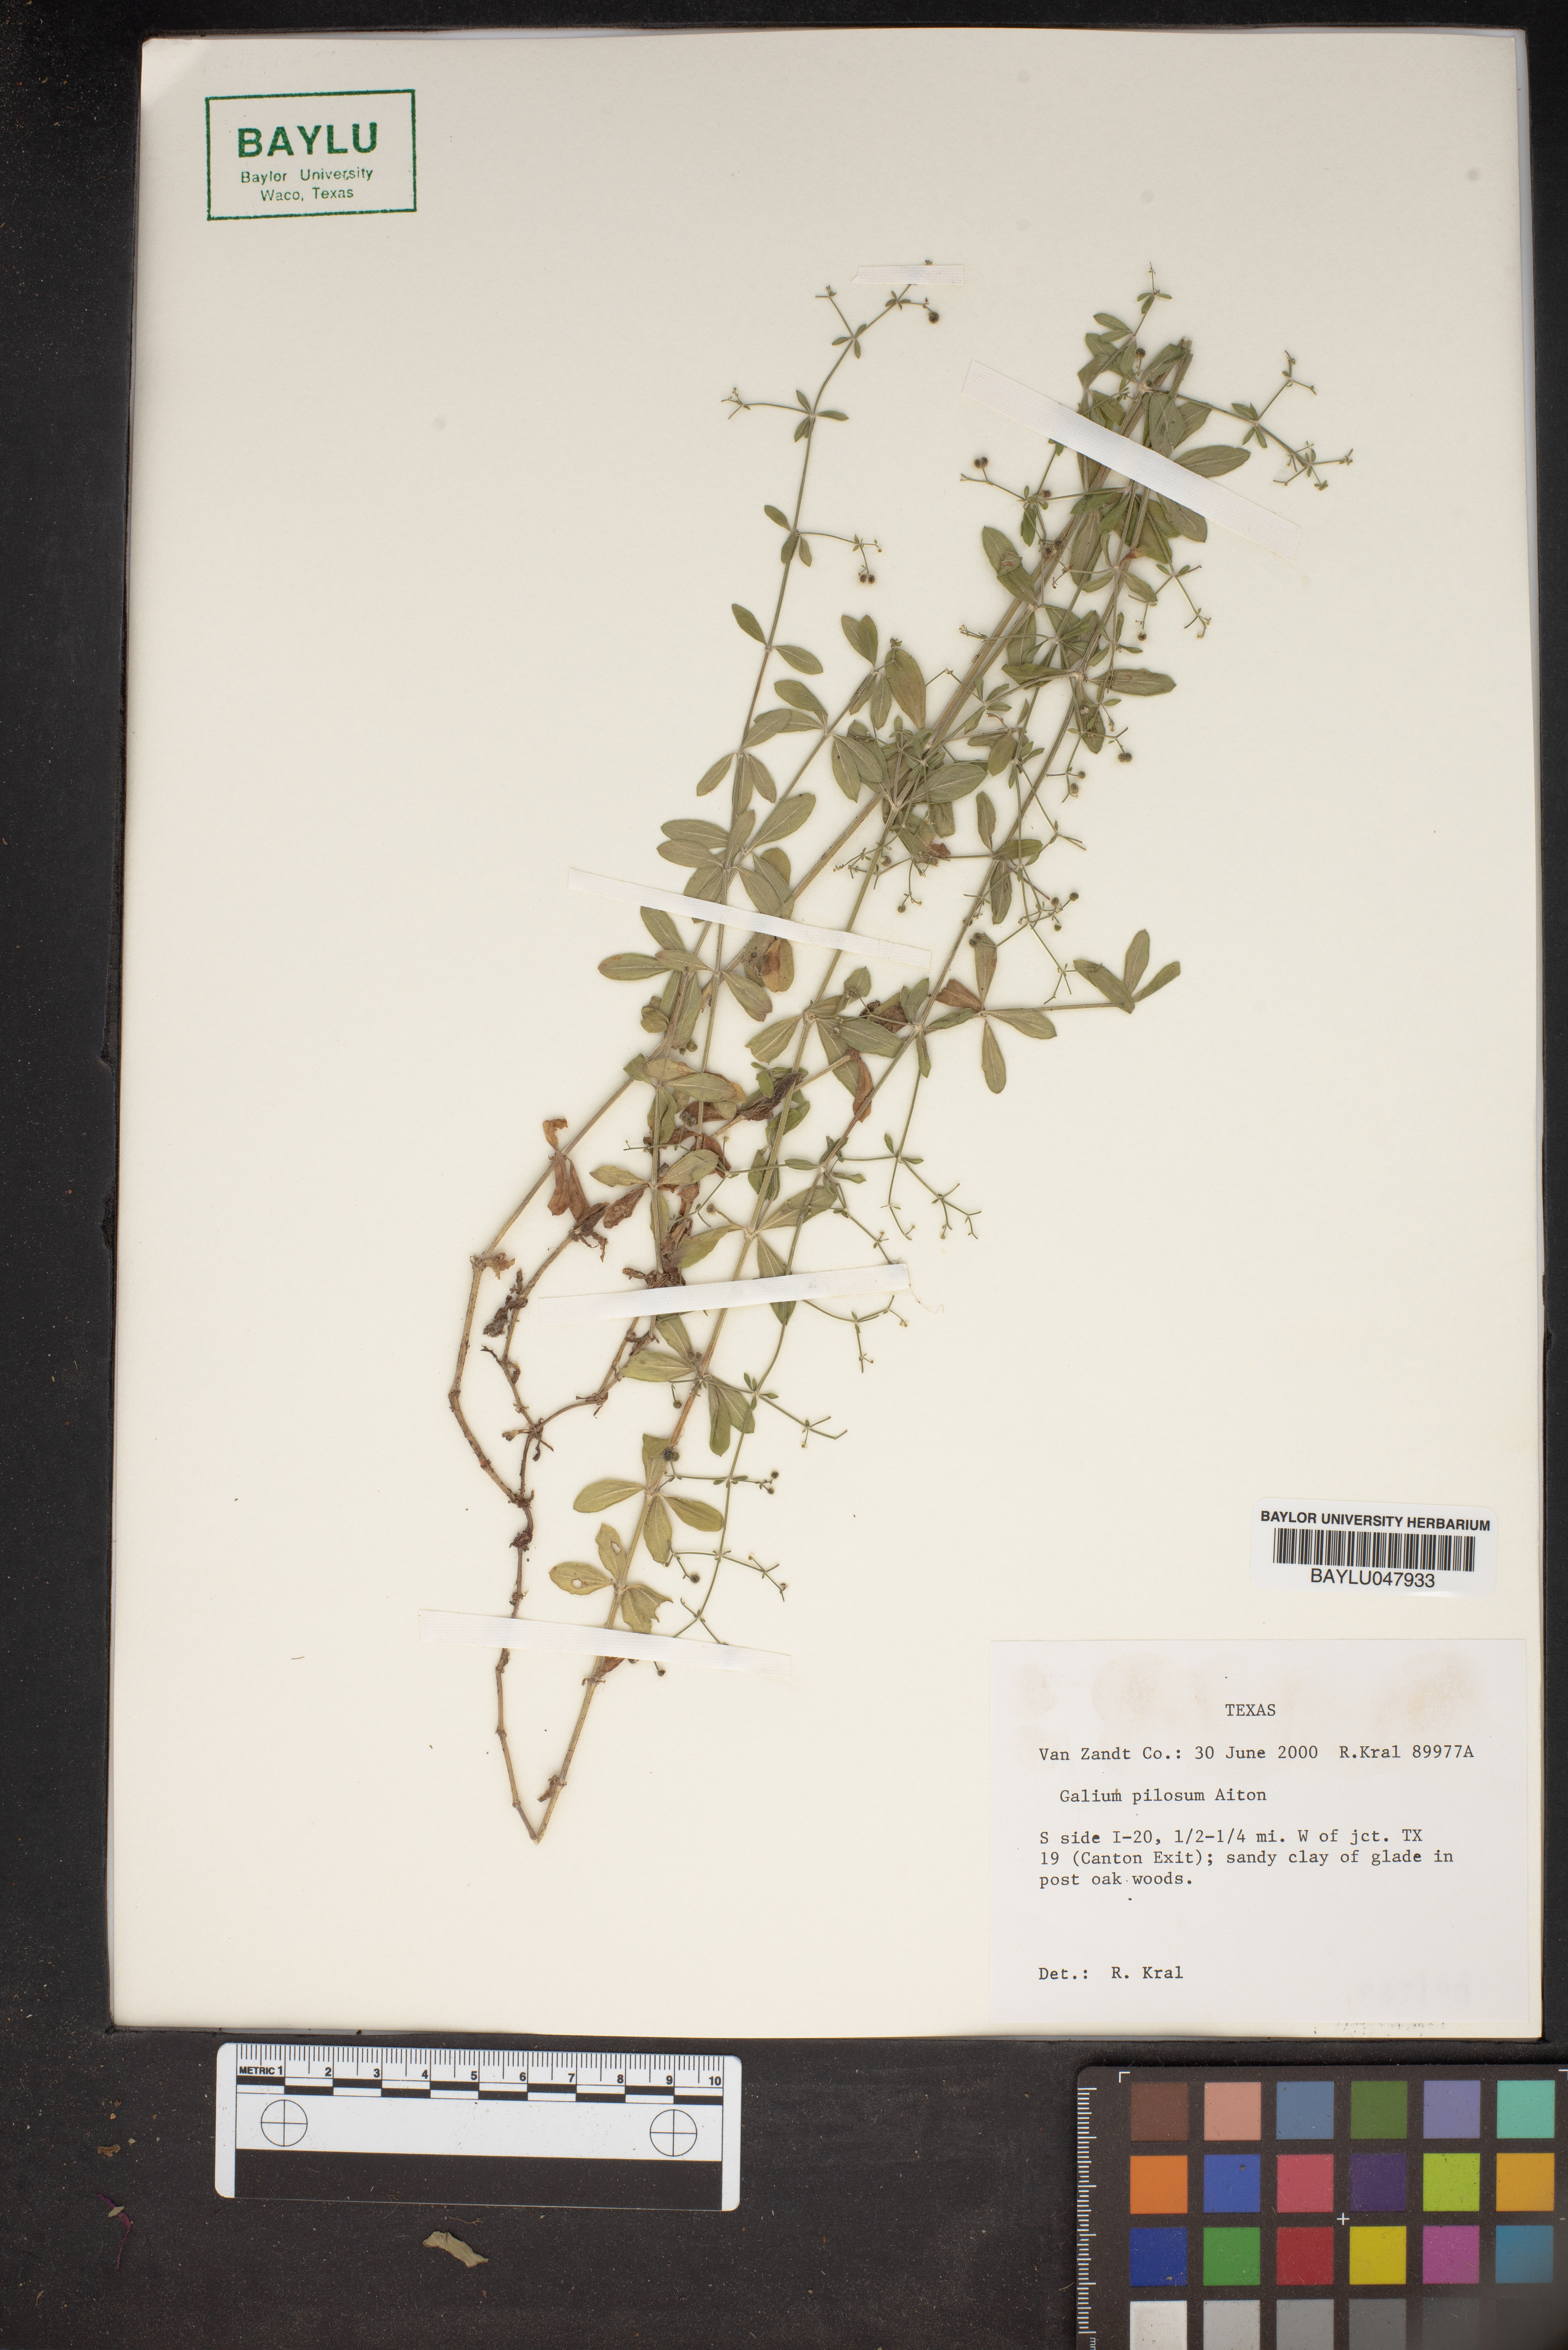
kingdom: Plantae
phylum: Tracheophyta
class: Magnoliopsida
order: Gentianales
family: Rubiaceae
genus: Galium
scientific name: Galium pilosum
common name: Hairy bedstraw
